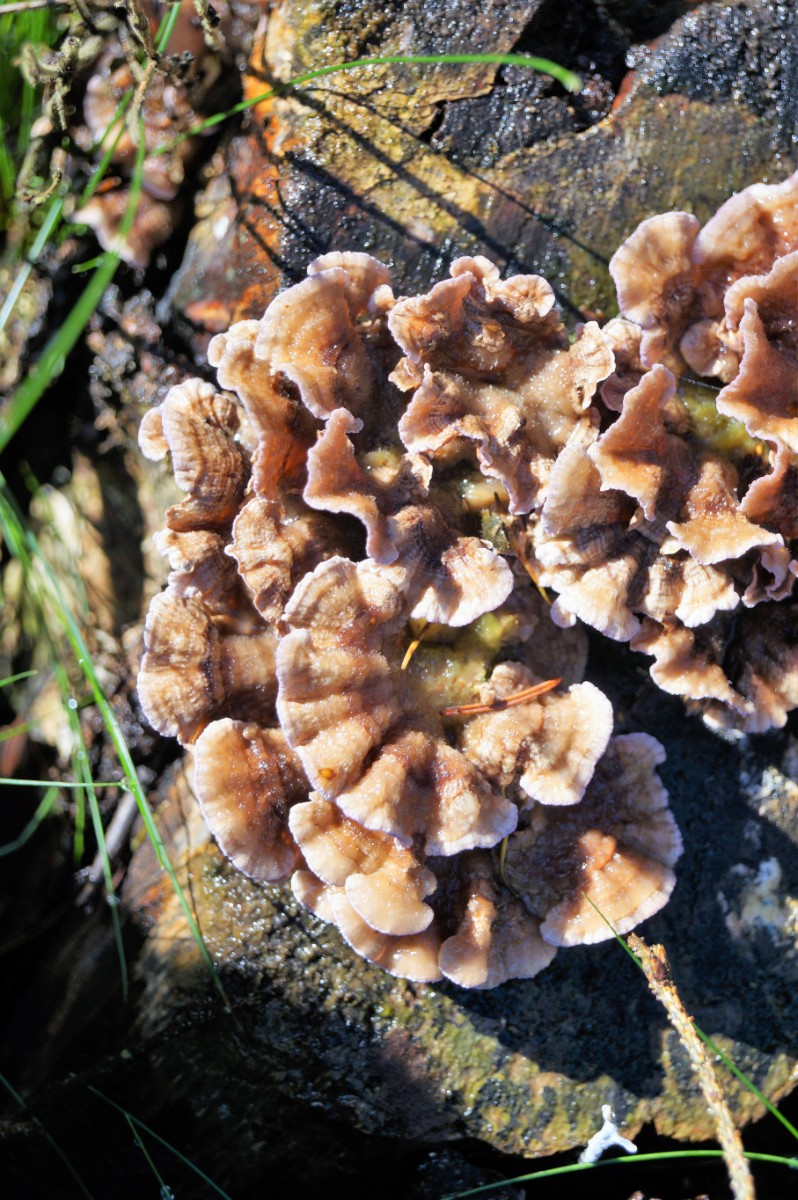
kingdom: Fungi
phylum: Basidiomycota
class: Agaricomycetes
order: Agaricales
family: Cyphellaceae
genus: Chondrostereum
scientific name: Chondrostereum purpureum
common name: purpurlædersvamp
